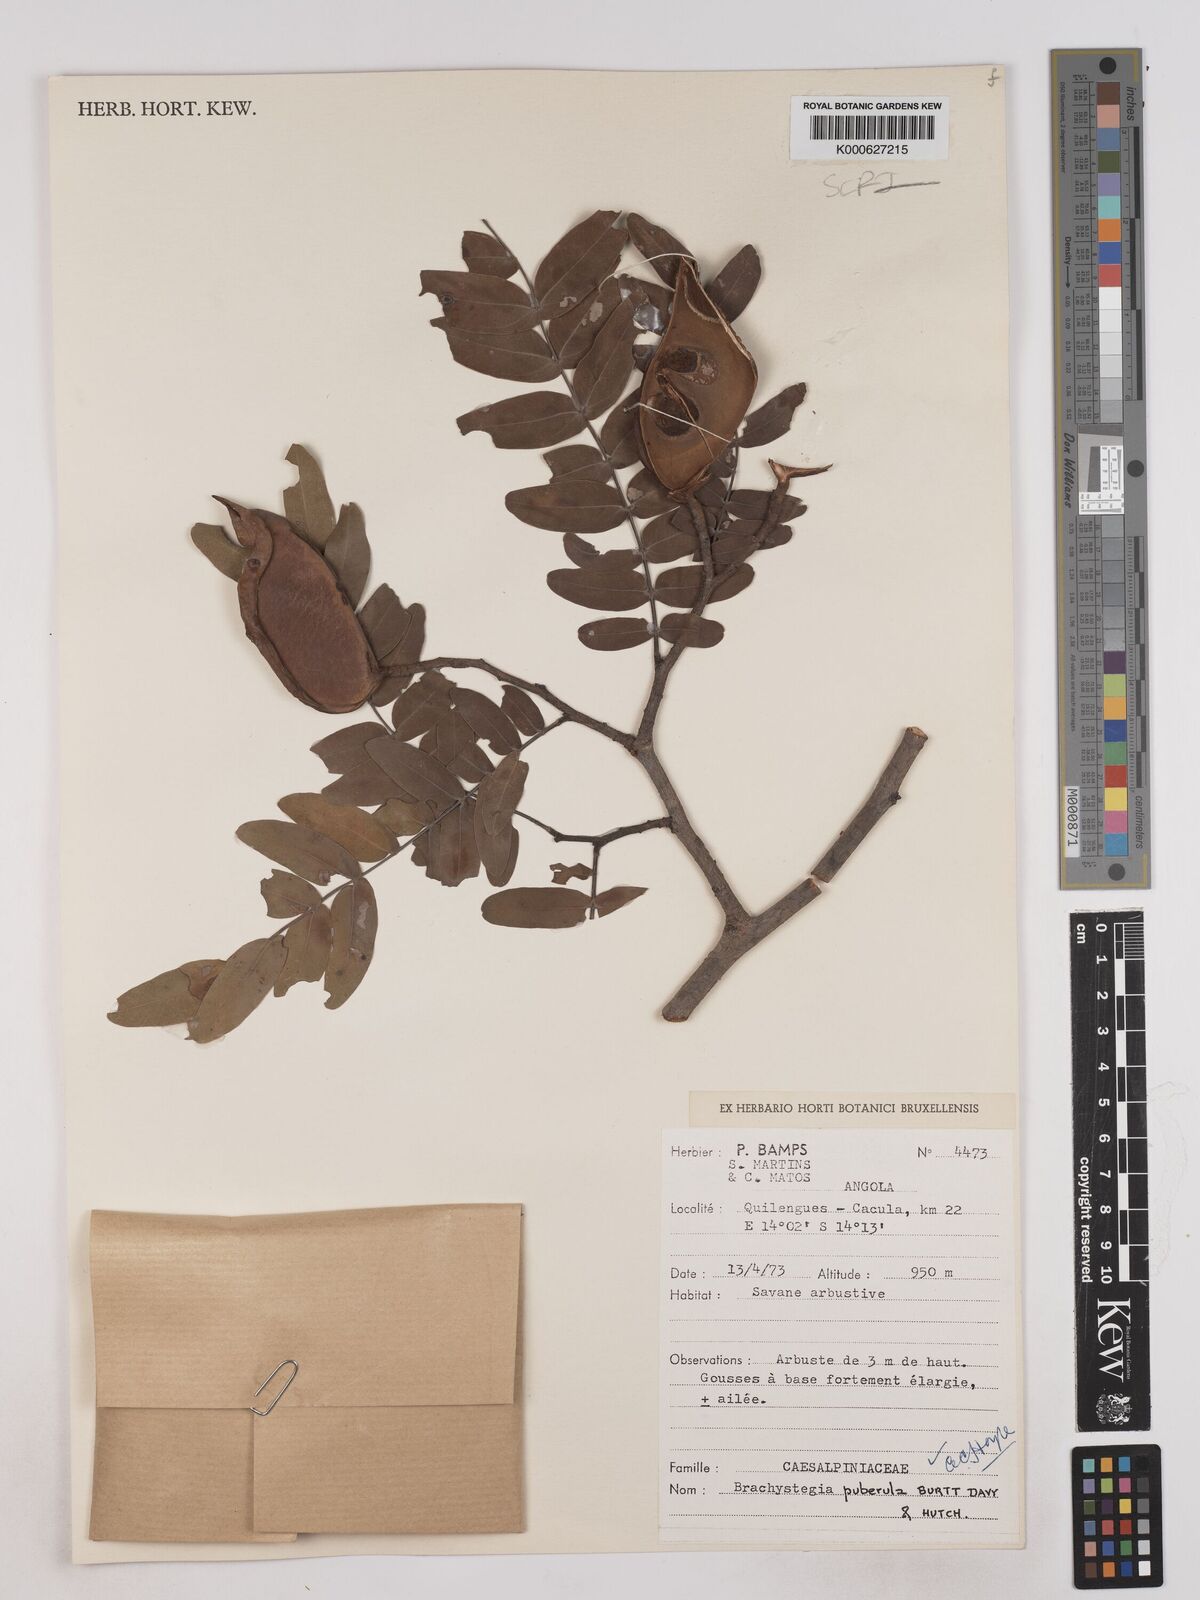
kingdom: Plantae
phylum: Tracheophyta
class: Magnoliopsida
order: Fabales
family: Fabaceae
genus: Brachystegia
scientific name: Brachystegia puberula
